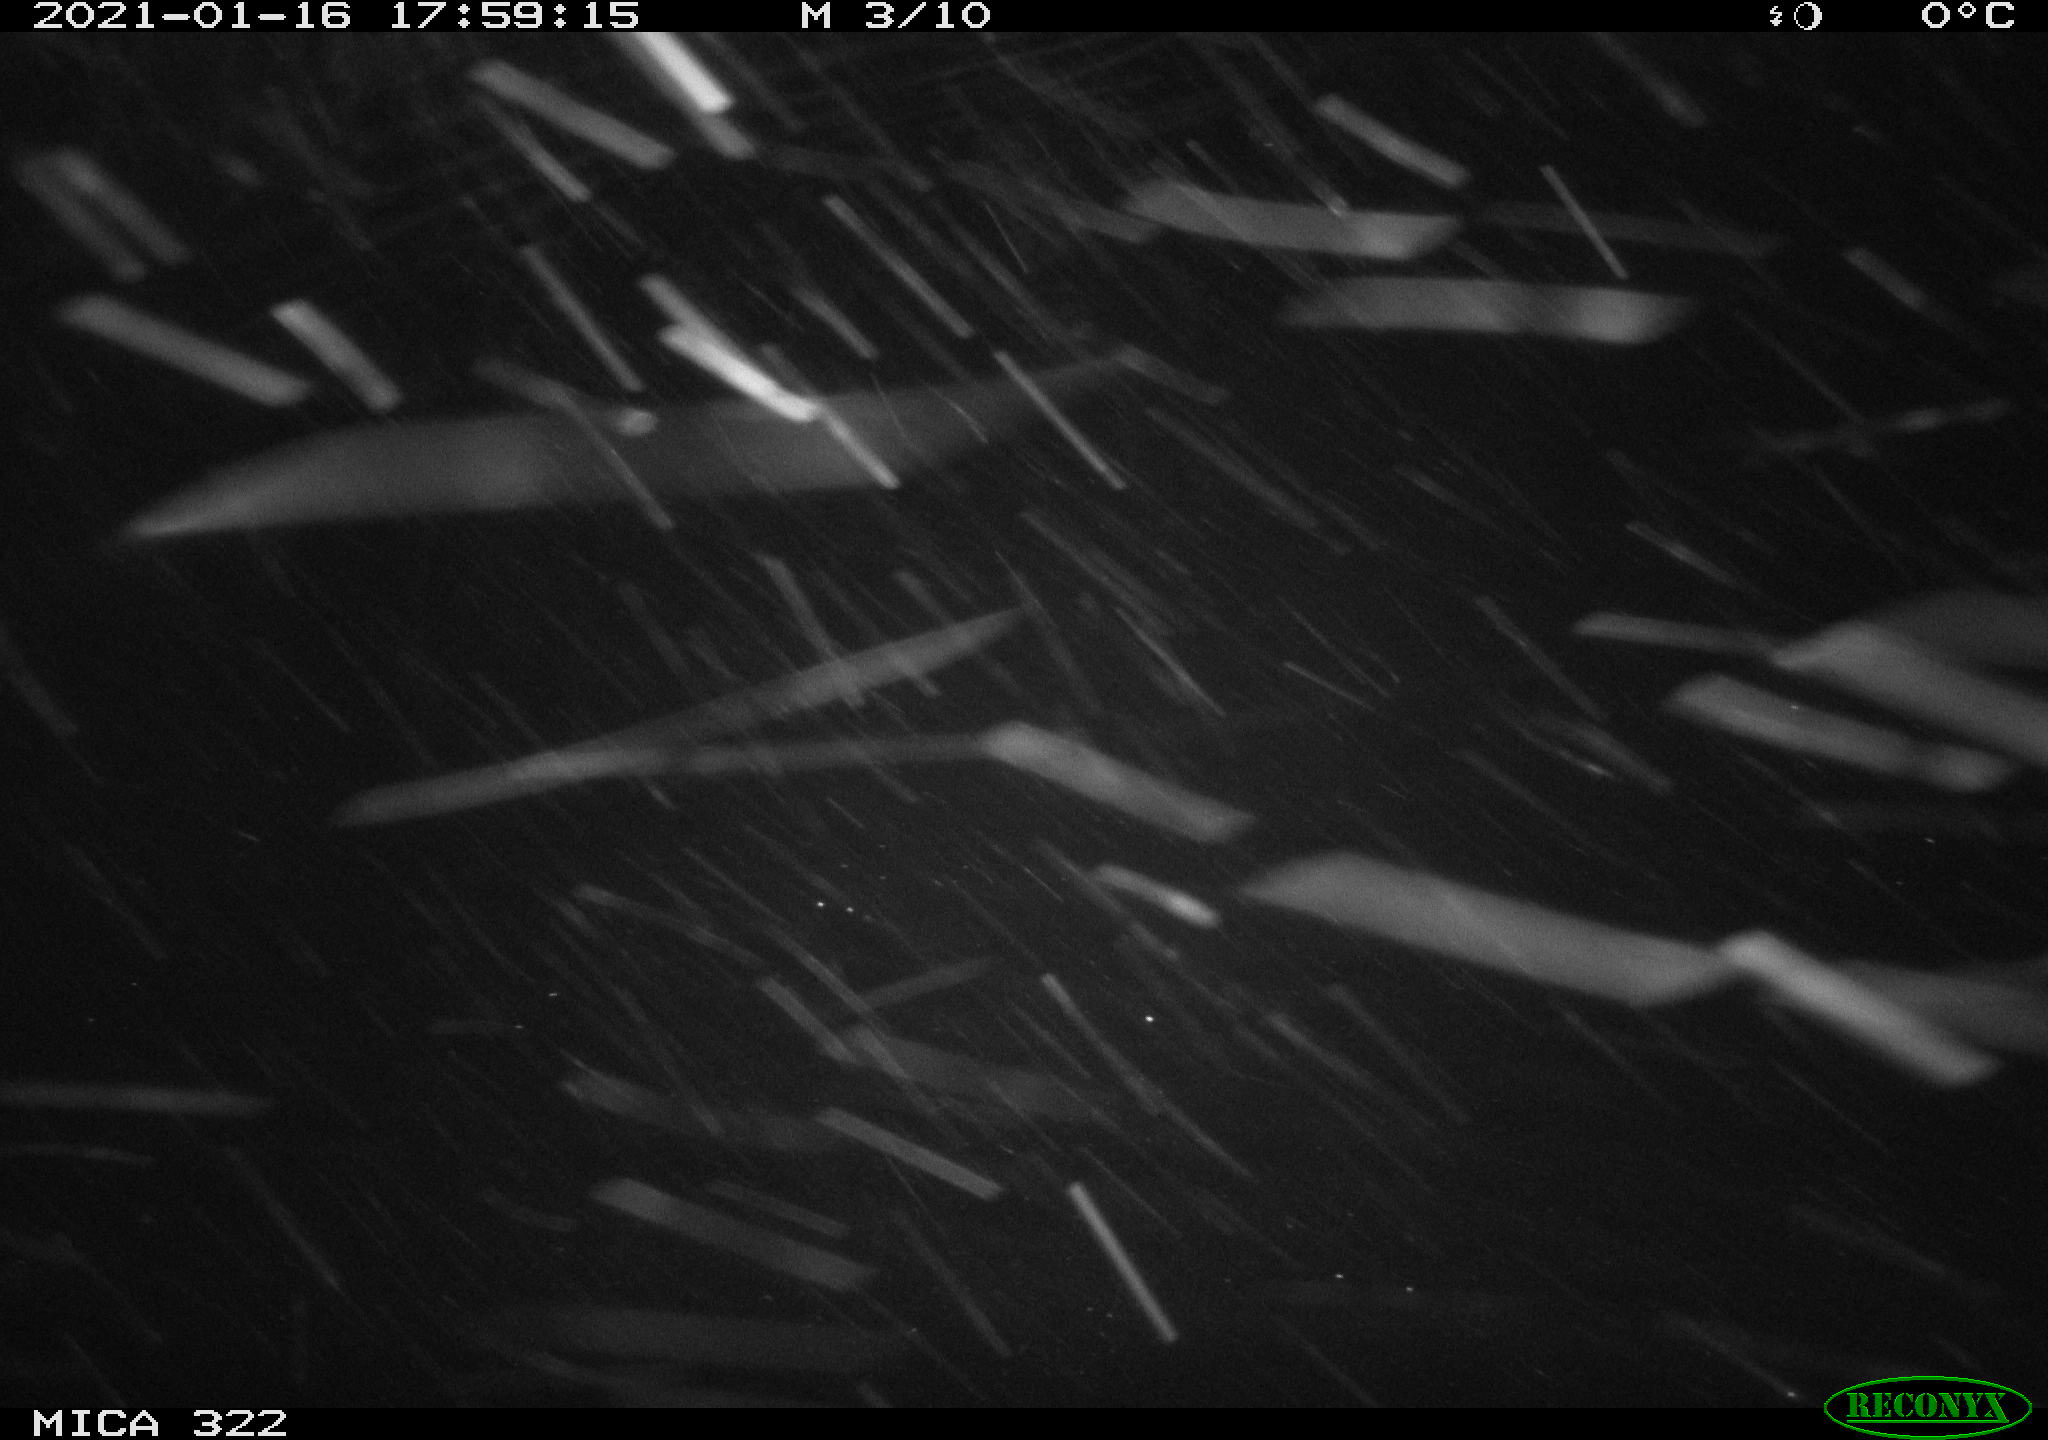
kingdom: Animalia
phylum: Chordata
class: Aves
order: Gruiformes
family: Rallidae
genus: Fulica
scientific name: Fulica atra
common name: Eurasian coot
